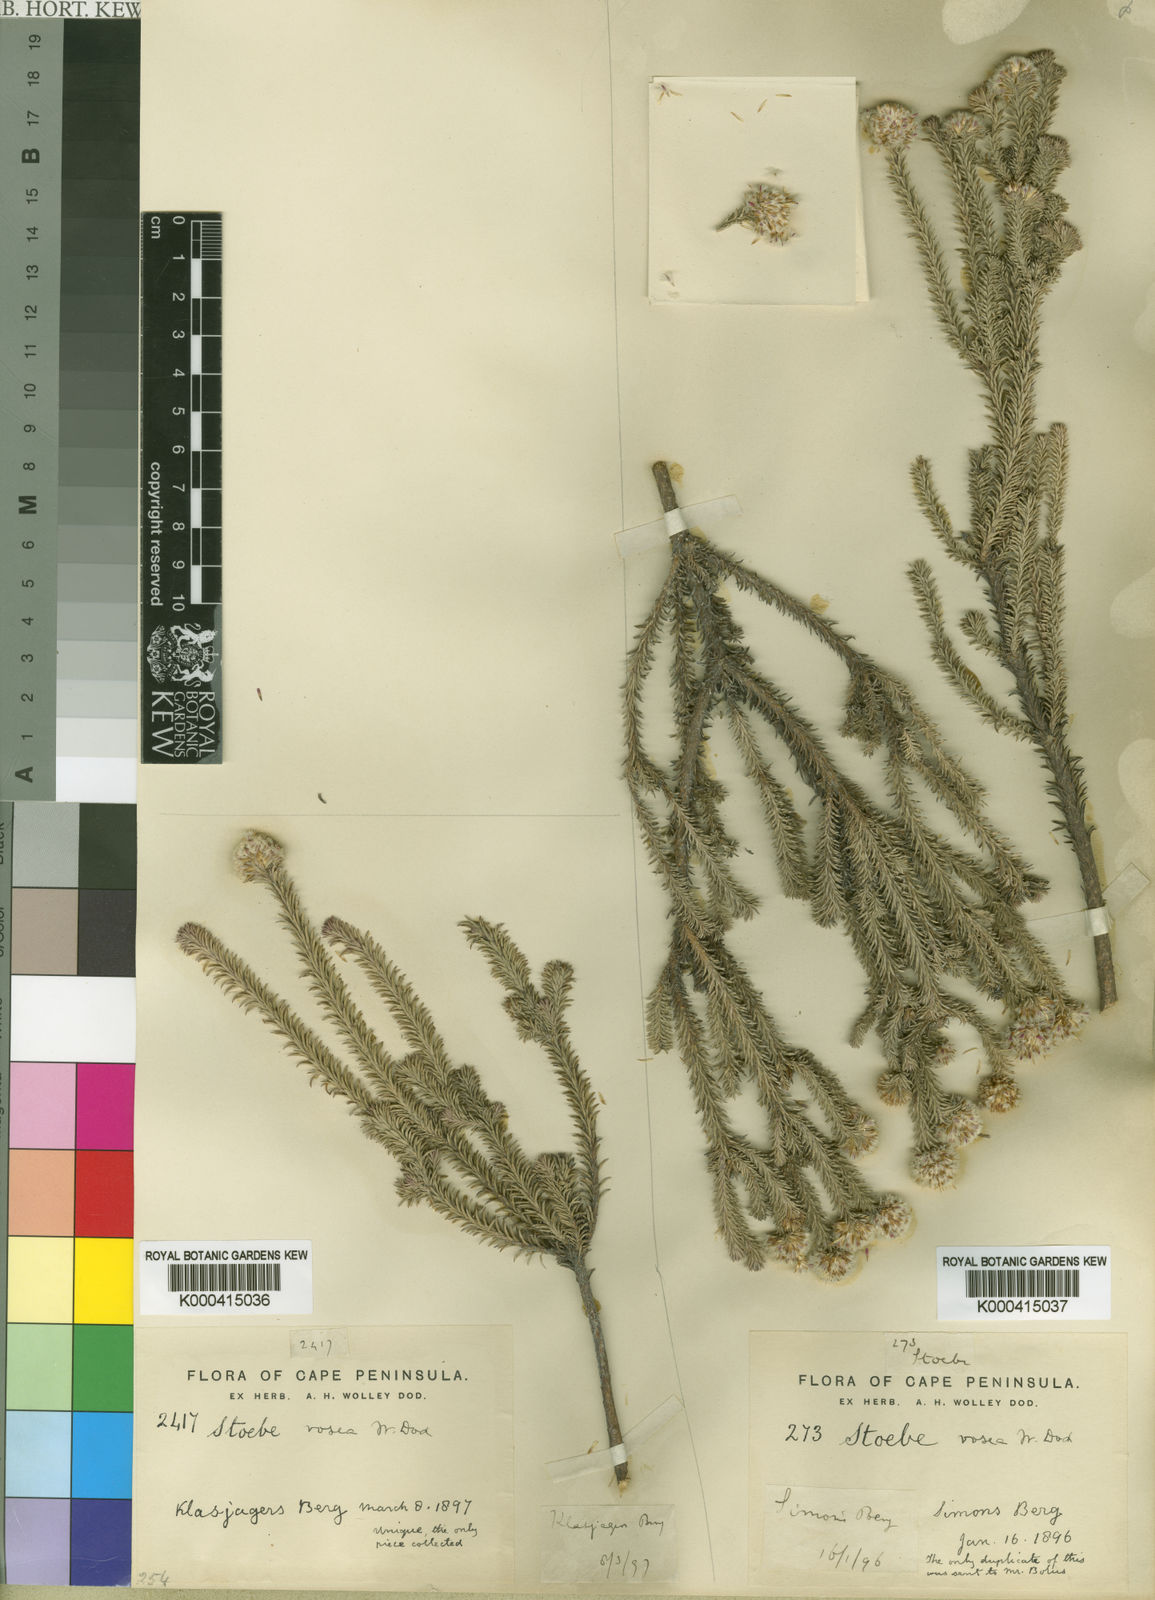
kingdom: Plantae
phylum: Tracheophyta
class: Magnoliopsida
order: Asterales
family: Asteraceae
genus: Stoebe
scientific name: Stoebe rosea
